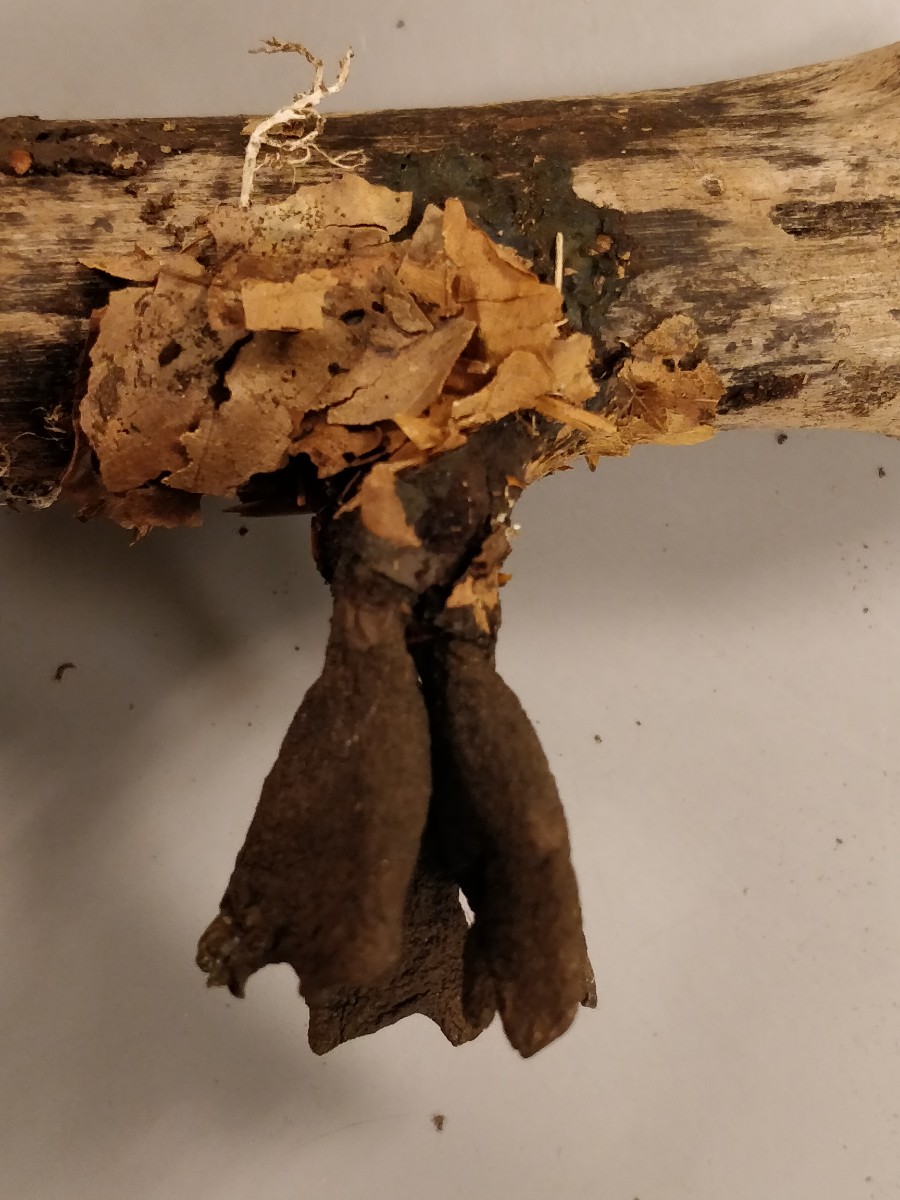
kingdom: Fungi
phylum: Ascomycota
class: Sordariomycetes
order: Xylariales
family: Xylariaceae
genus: Xylaria
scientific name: Xylaria hypoxylon
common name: grenet stødsvamp
